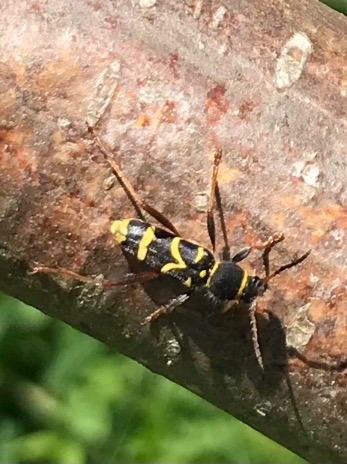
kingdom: Animalia
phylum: Arthropoda
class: Insecta
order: Coleoptera
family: Cerambycidae
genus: Clytus
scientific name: Clytus arietis
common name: Lille hvepsebuk
